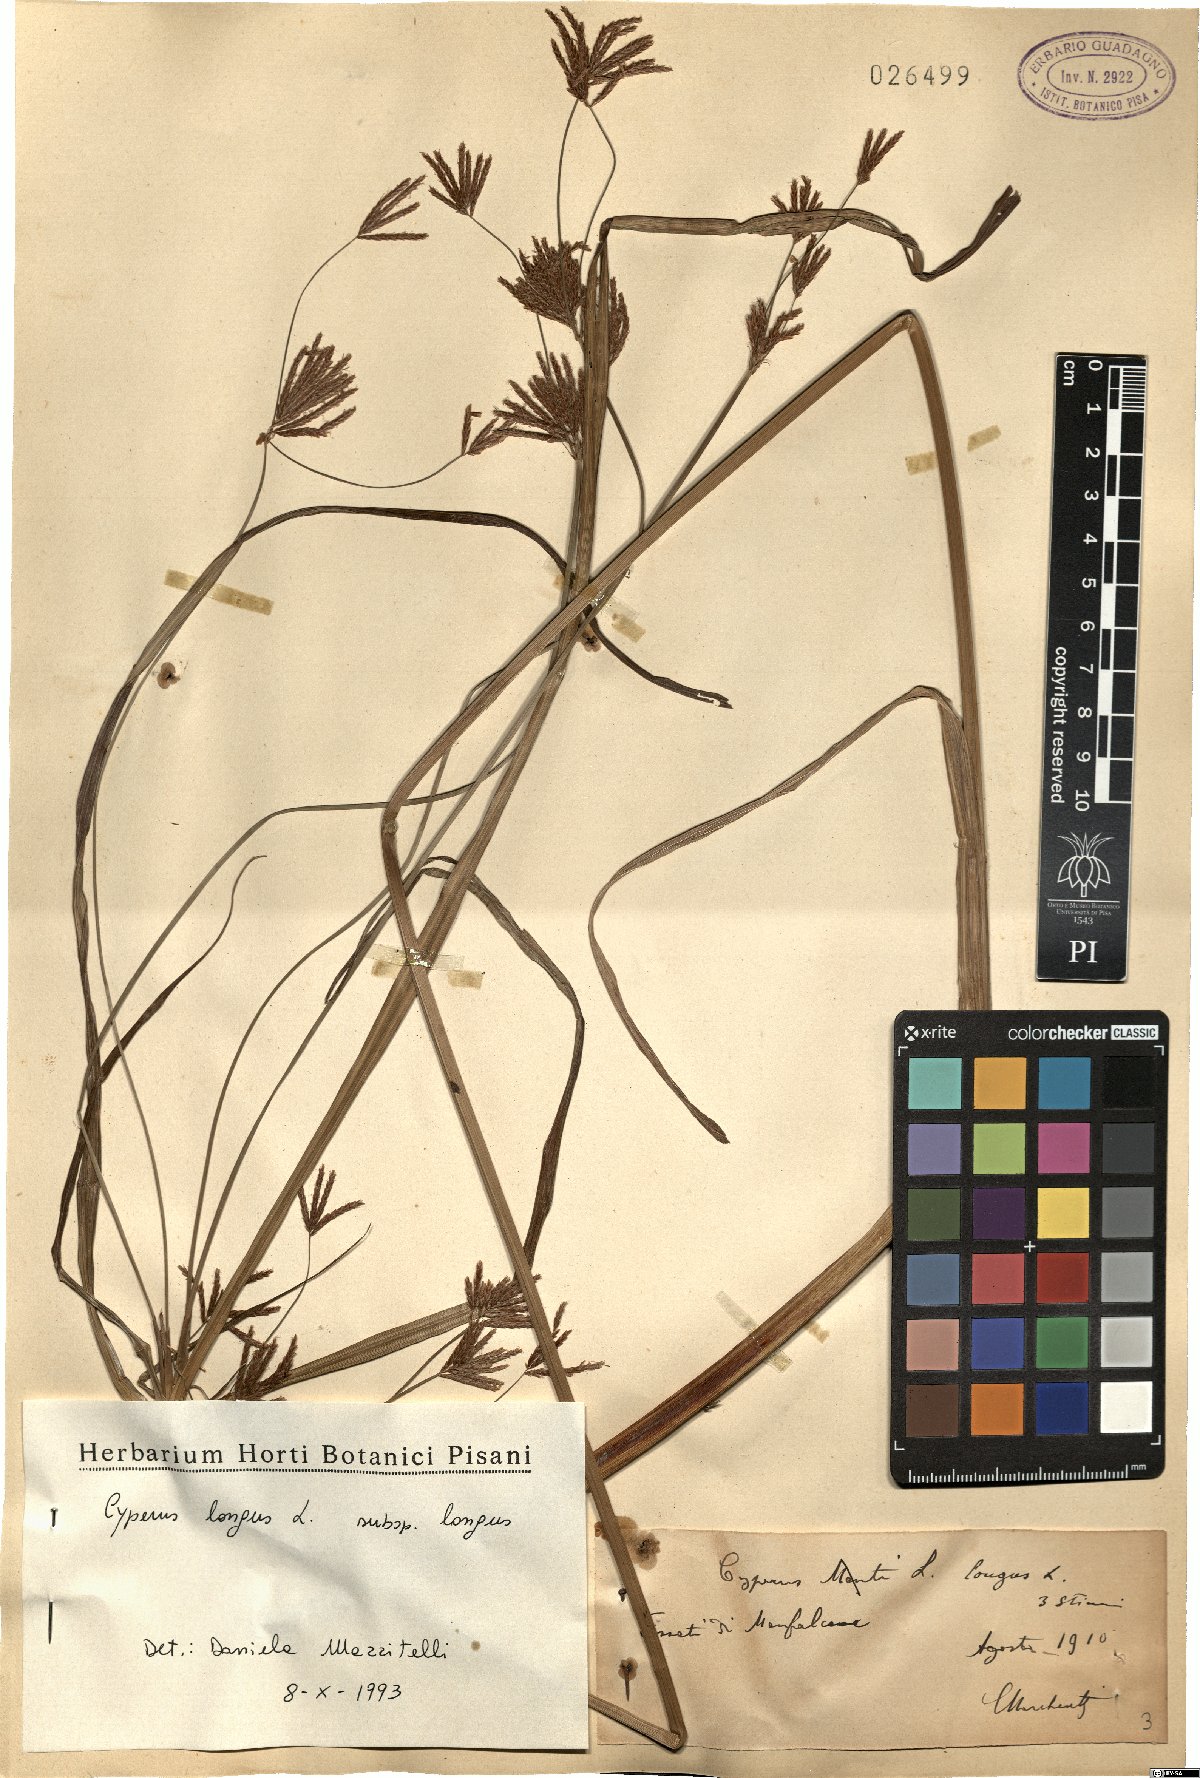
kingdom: Plantae
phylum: Tracheophyta
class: Liliopsida
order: Poales
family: Cyperaceae
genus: Cyperus
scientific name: Cyperus longus
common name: Galingale
